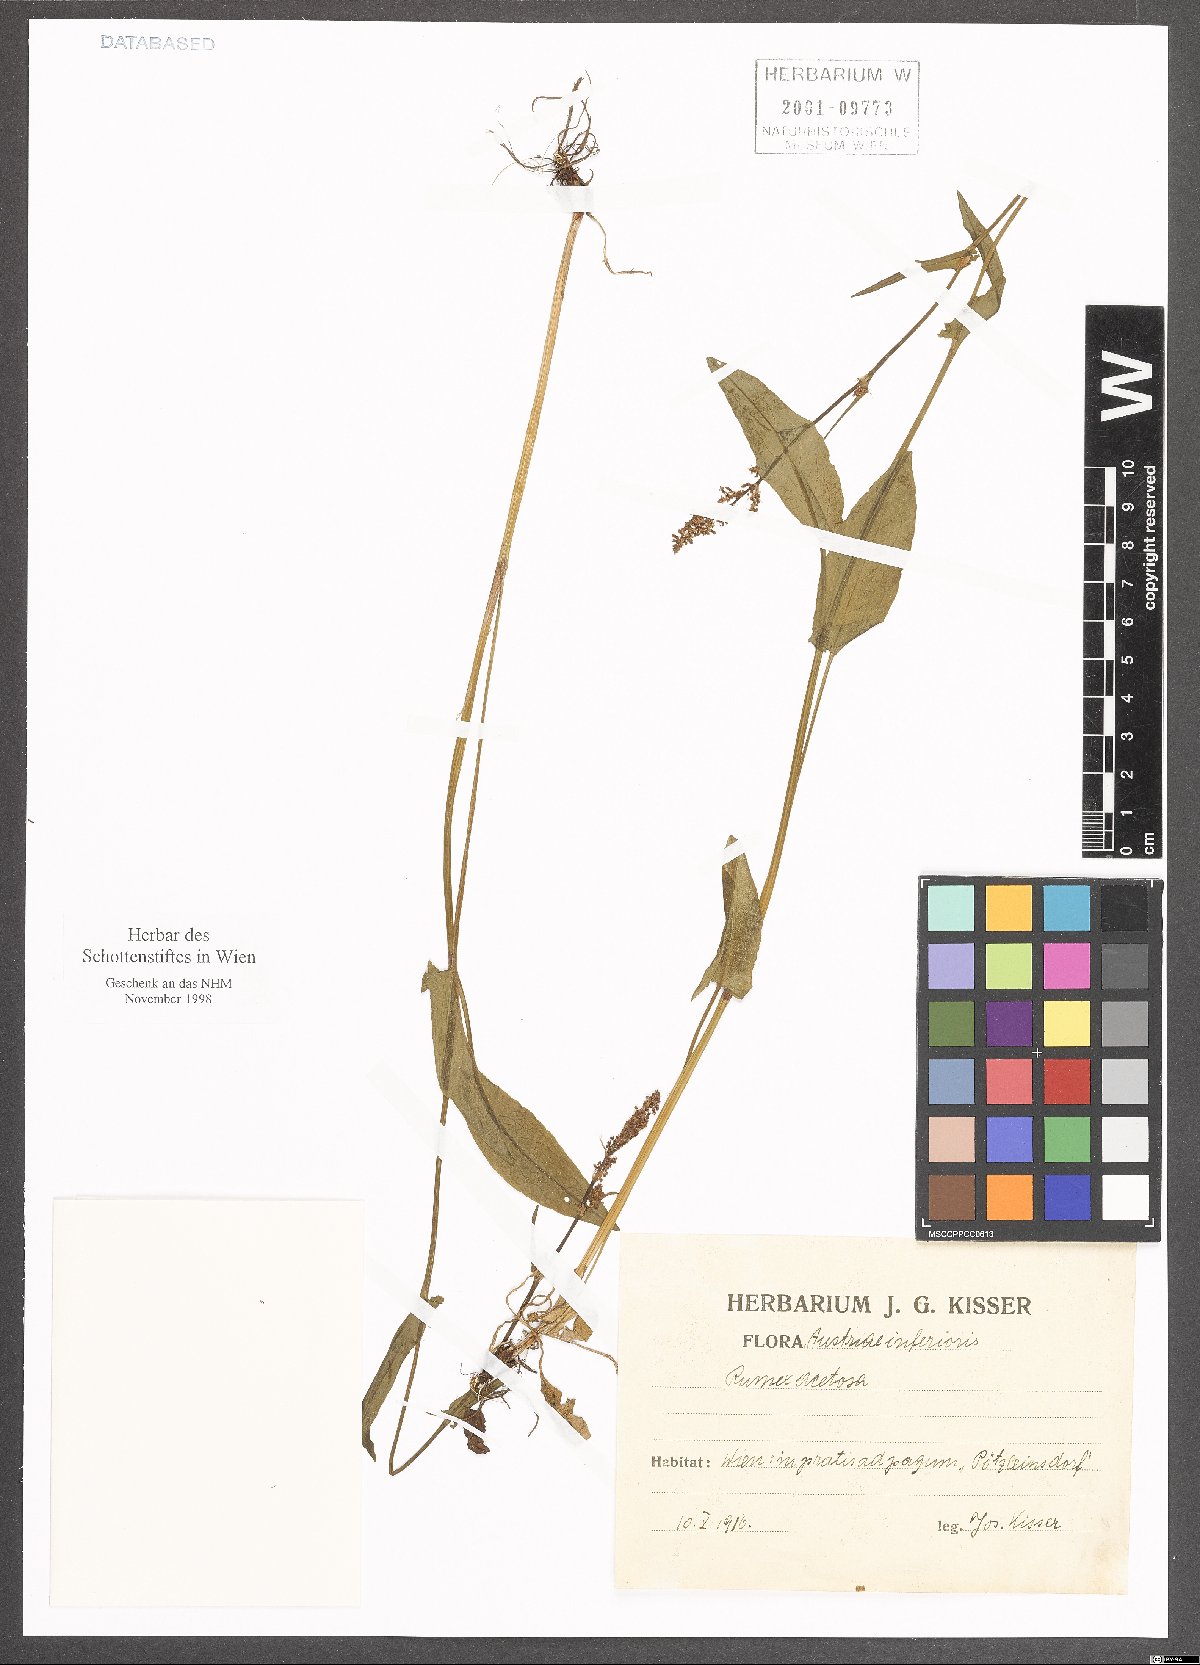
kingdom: Plantae
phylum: Tracheophyta
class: Magnoliopsida
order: Caryophyllales
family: Polygonaceae
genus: Rumex
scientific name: Rumex acetosa
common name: Garden sorrel
